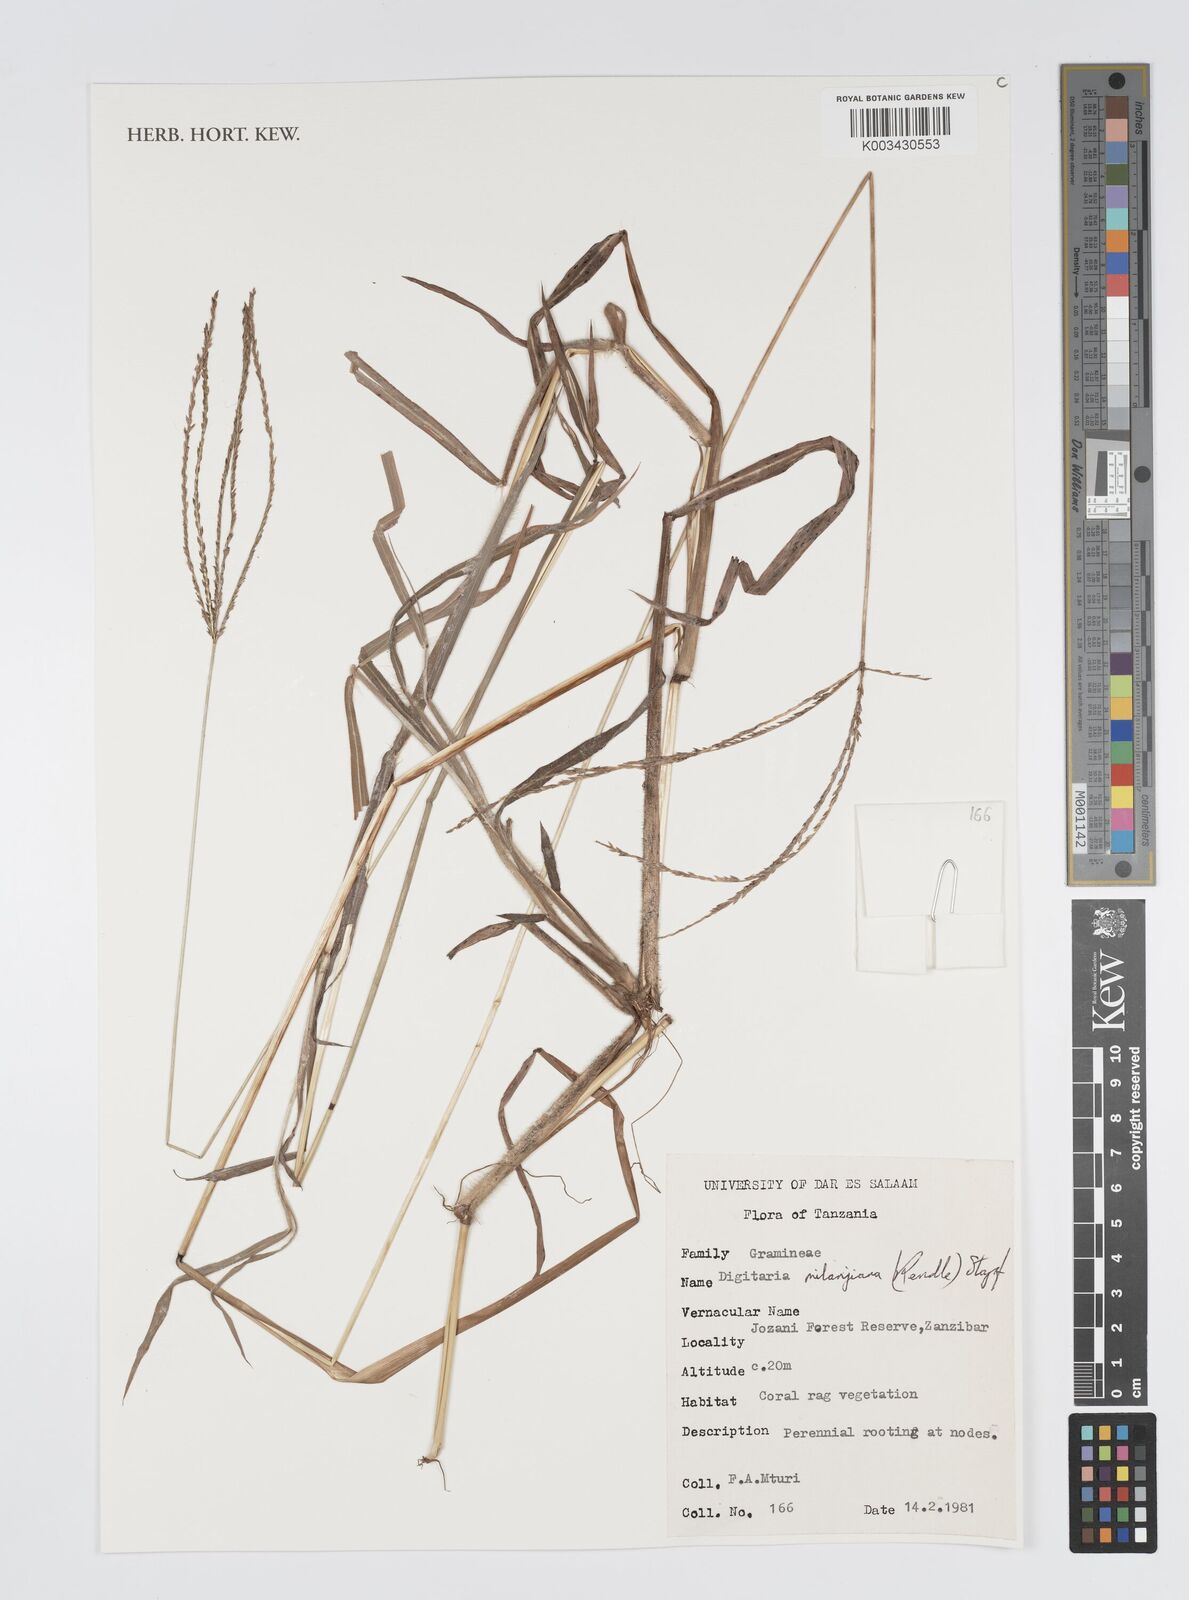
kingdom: Plantae
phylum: Tracheophyta
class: Liliopsida
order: Poales
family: Poaceae
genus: Digitaria
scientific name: Digitaria milanjiana
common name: Madagascar crabgrass
